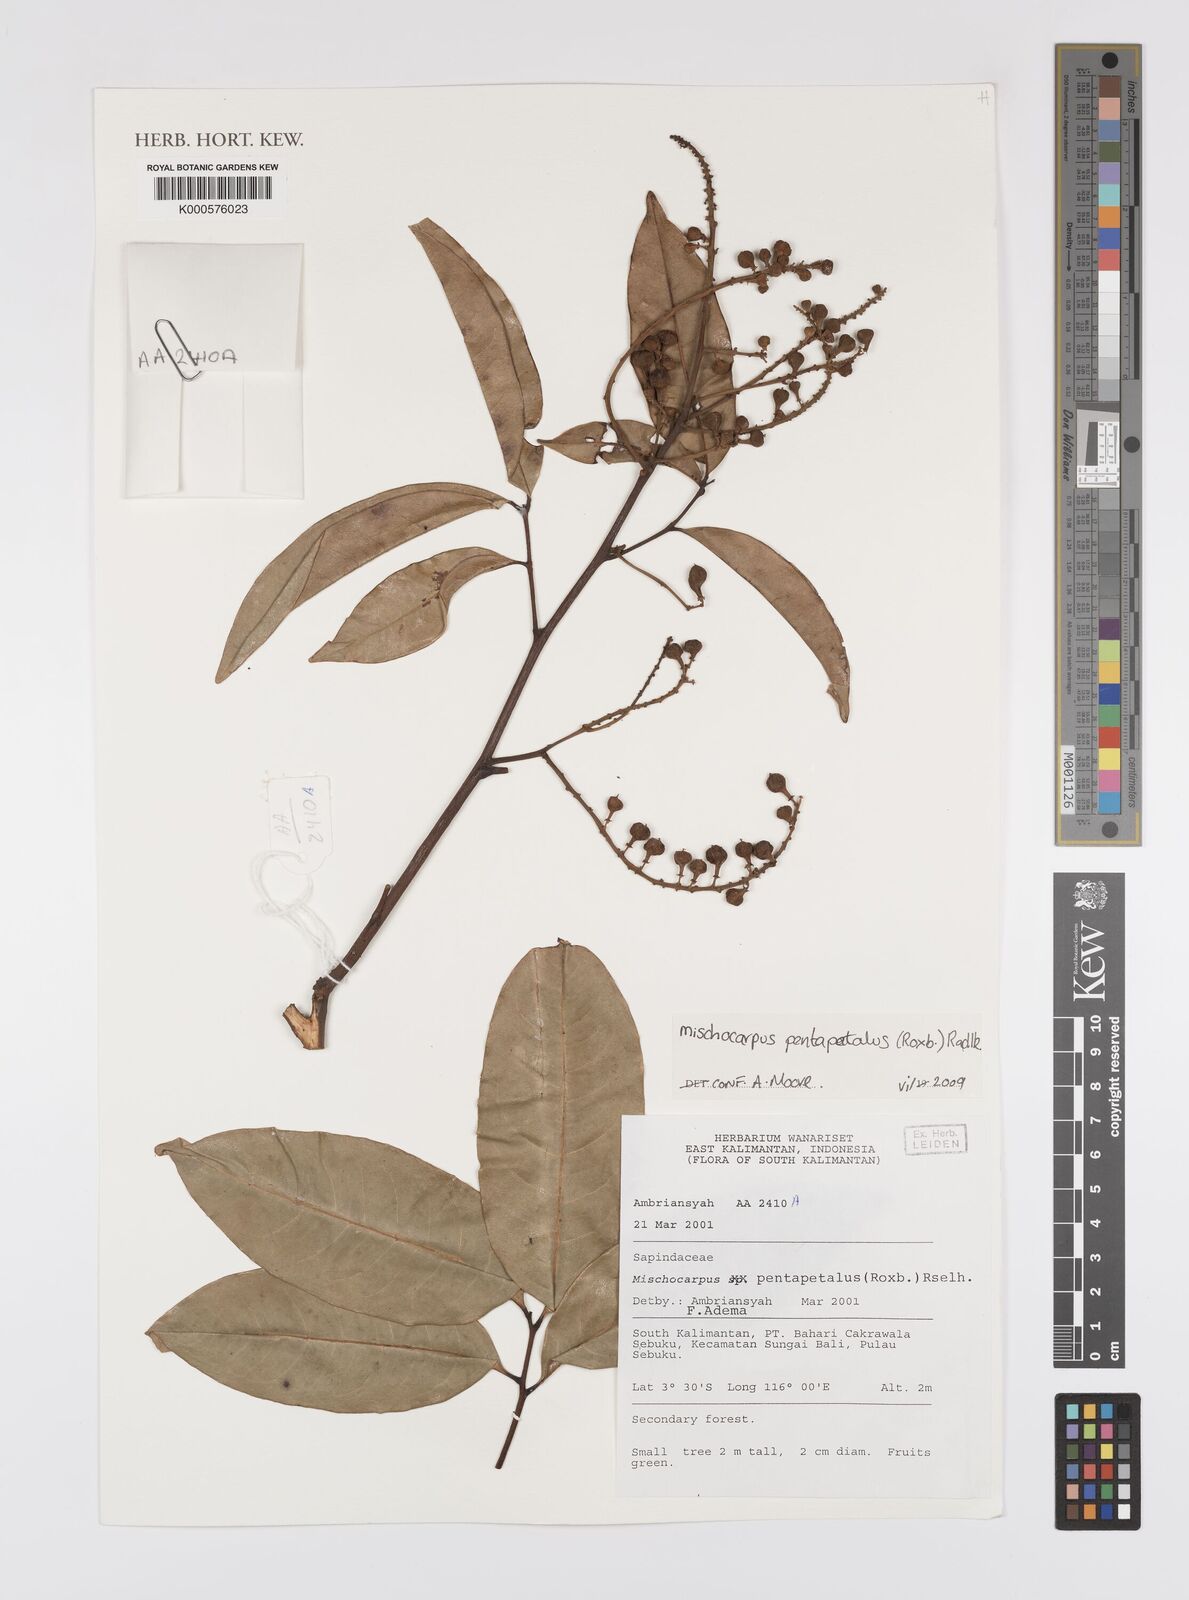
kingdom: Plantae
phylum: Tracheophyta
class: Magnoliopsida
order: Sapindales
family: Sapindaceae
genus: Mischocarpus
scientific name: Mischocarpus pentapetalus
